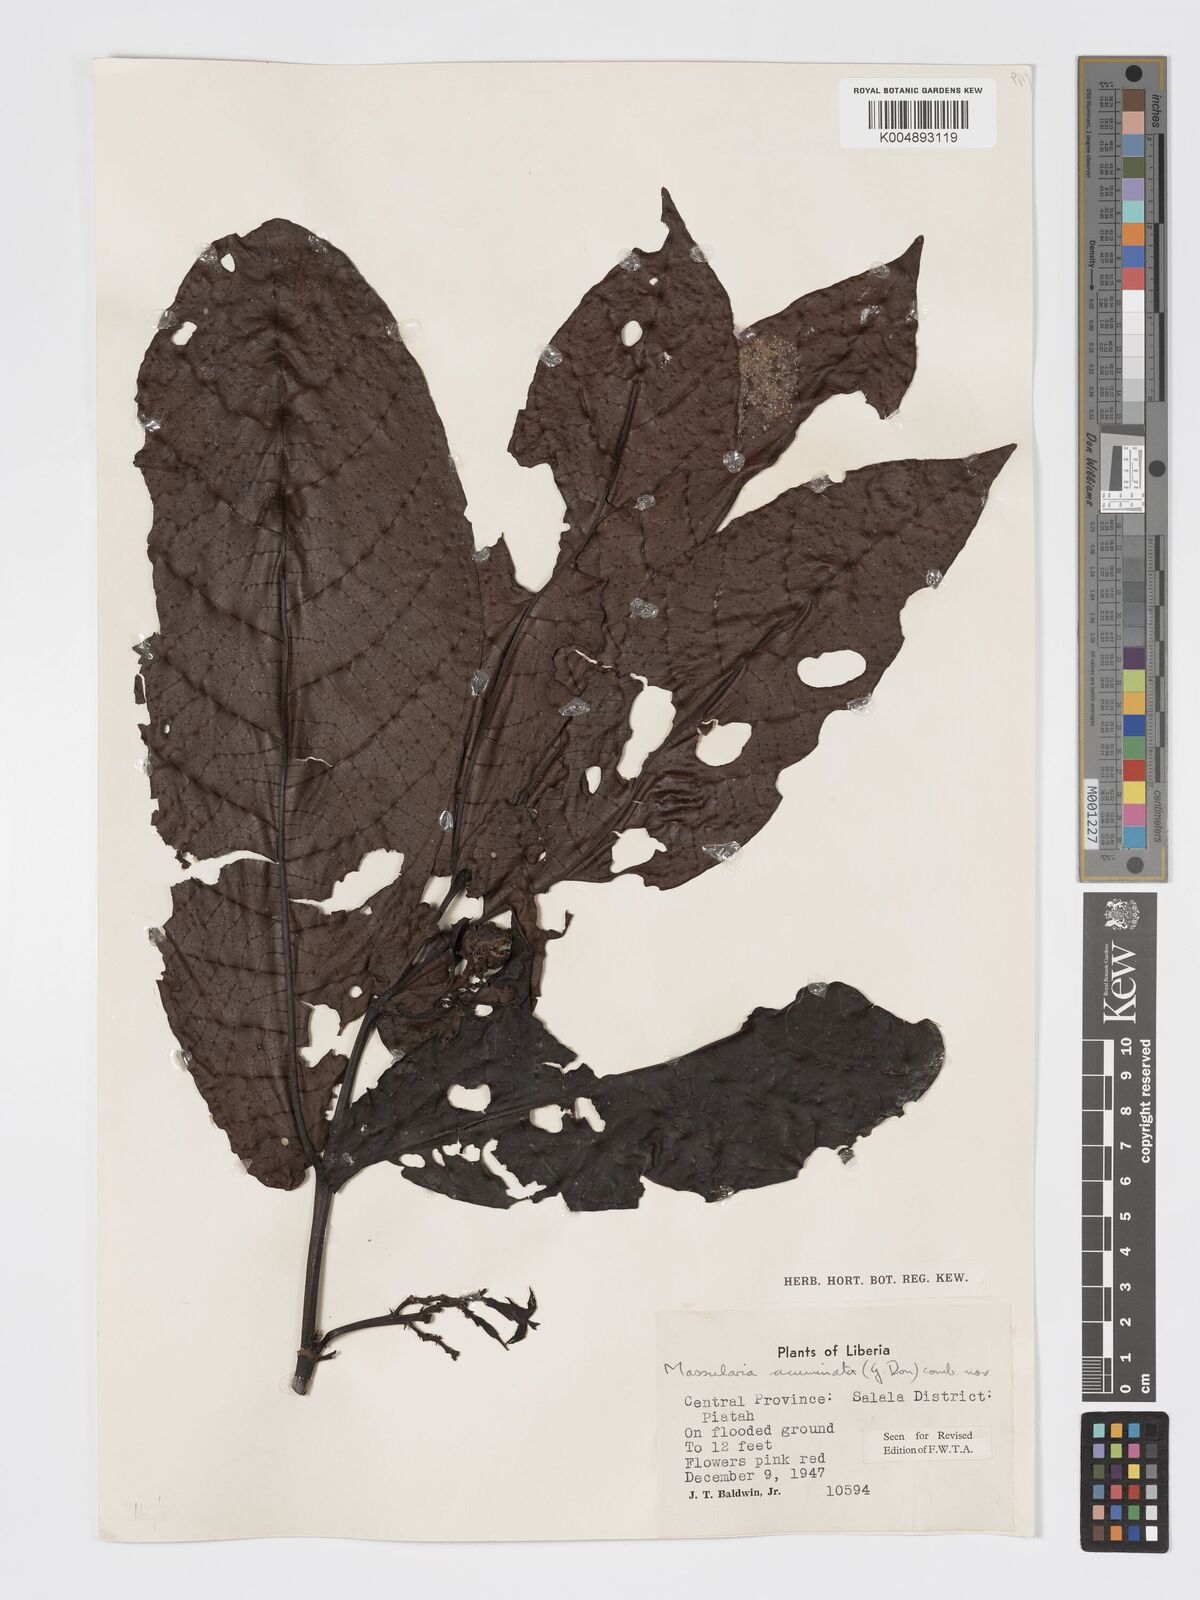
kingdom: Plantae
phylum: Tracheophyta
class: Magnoliopsida
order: Gentianales
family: Rubiaceae
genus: Massularia
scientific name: Massularia acuminata
